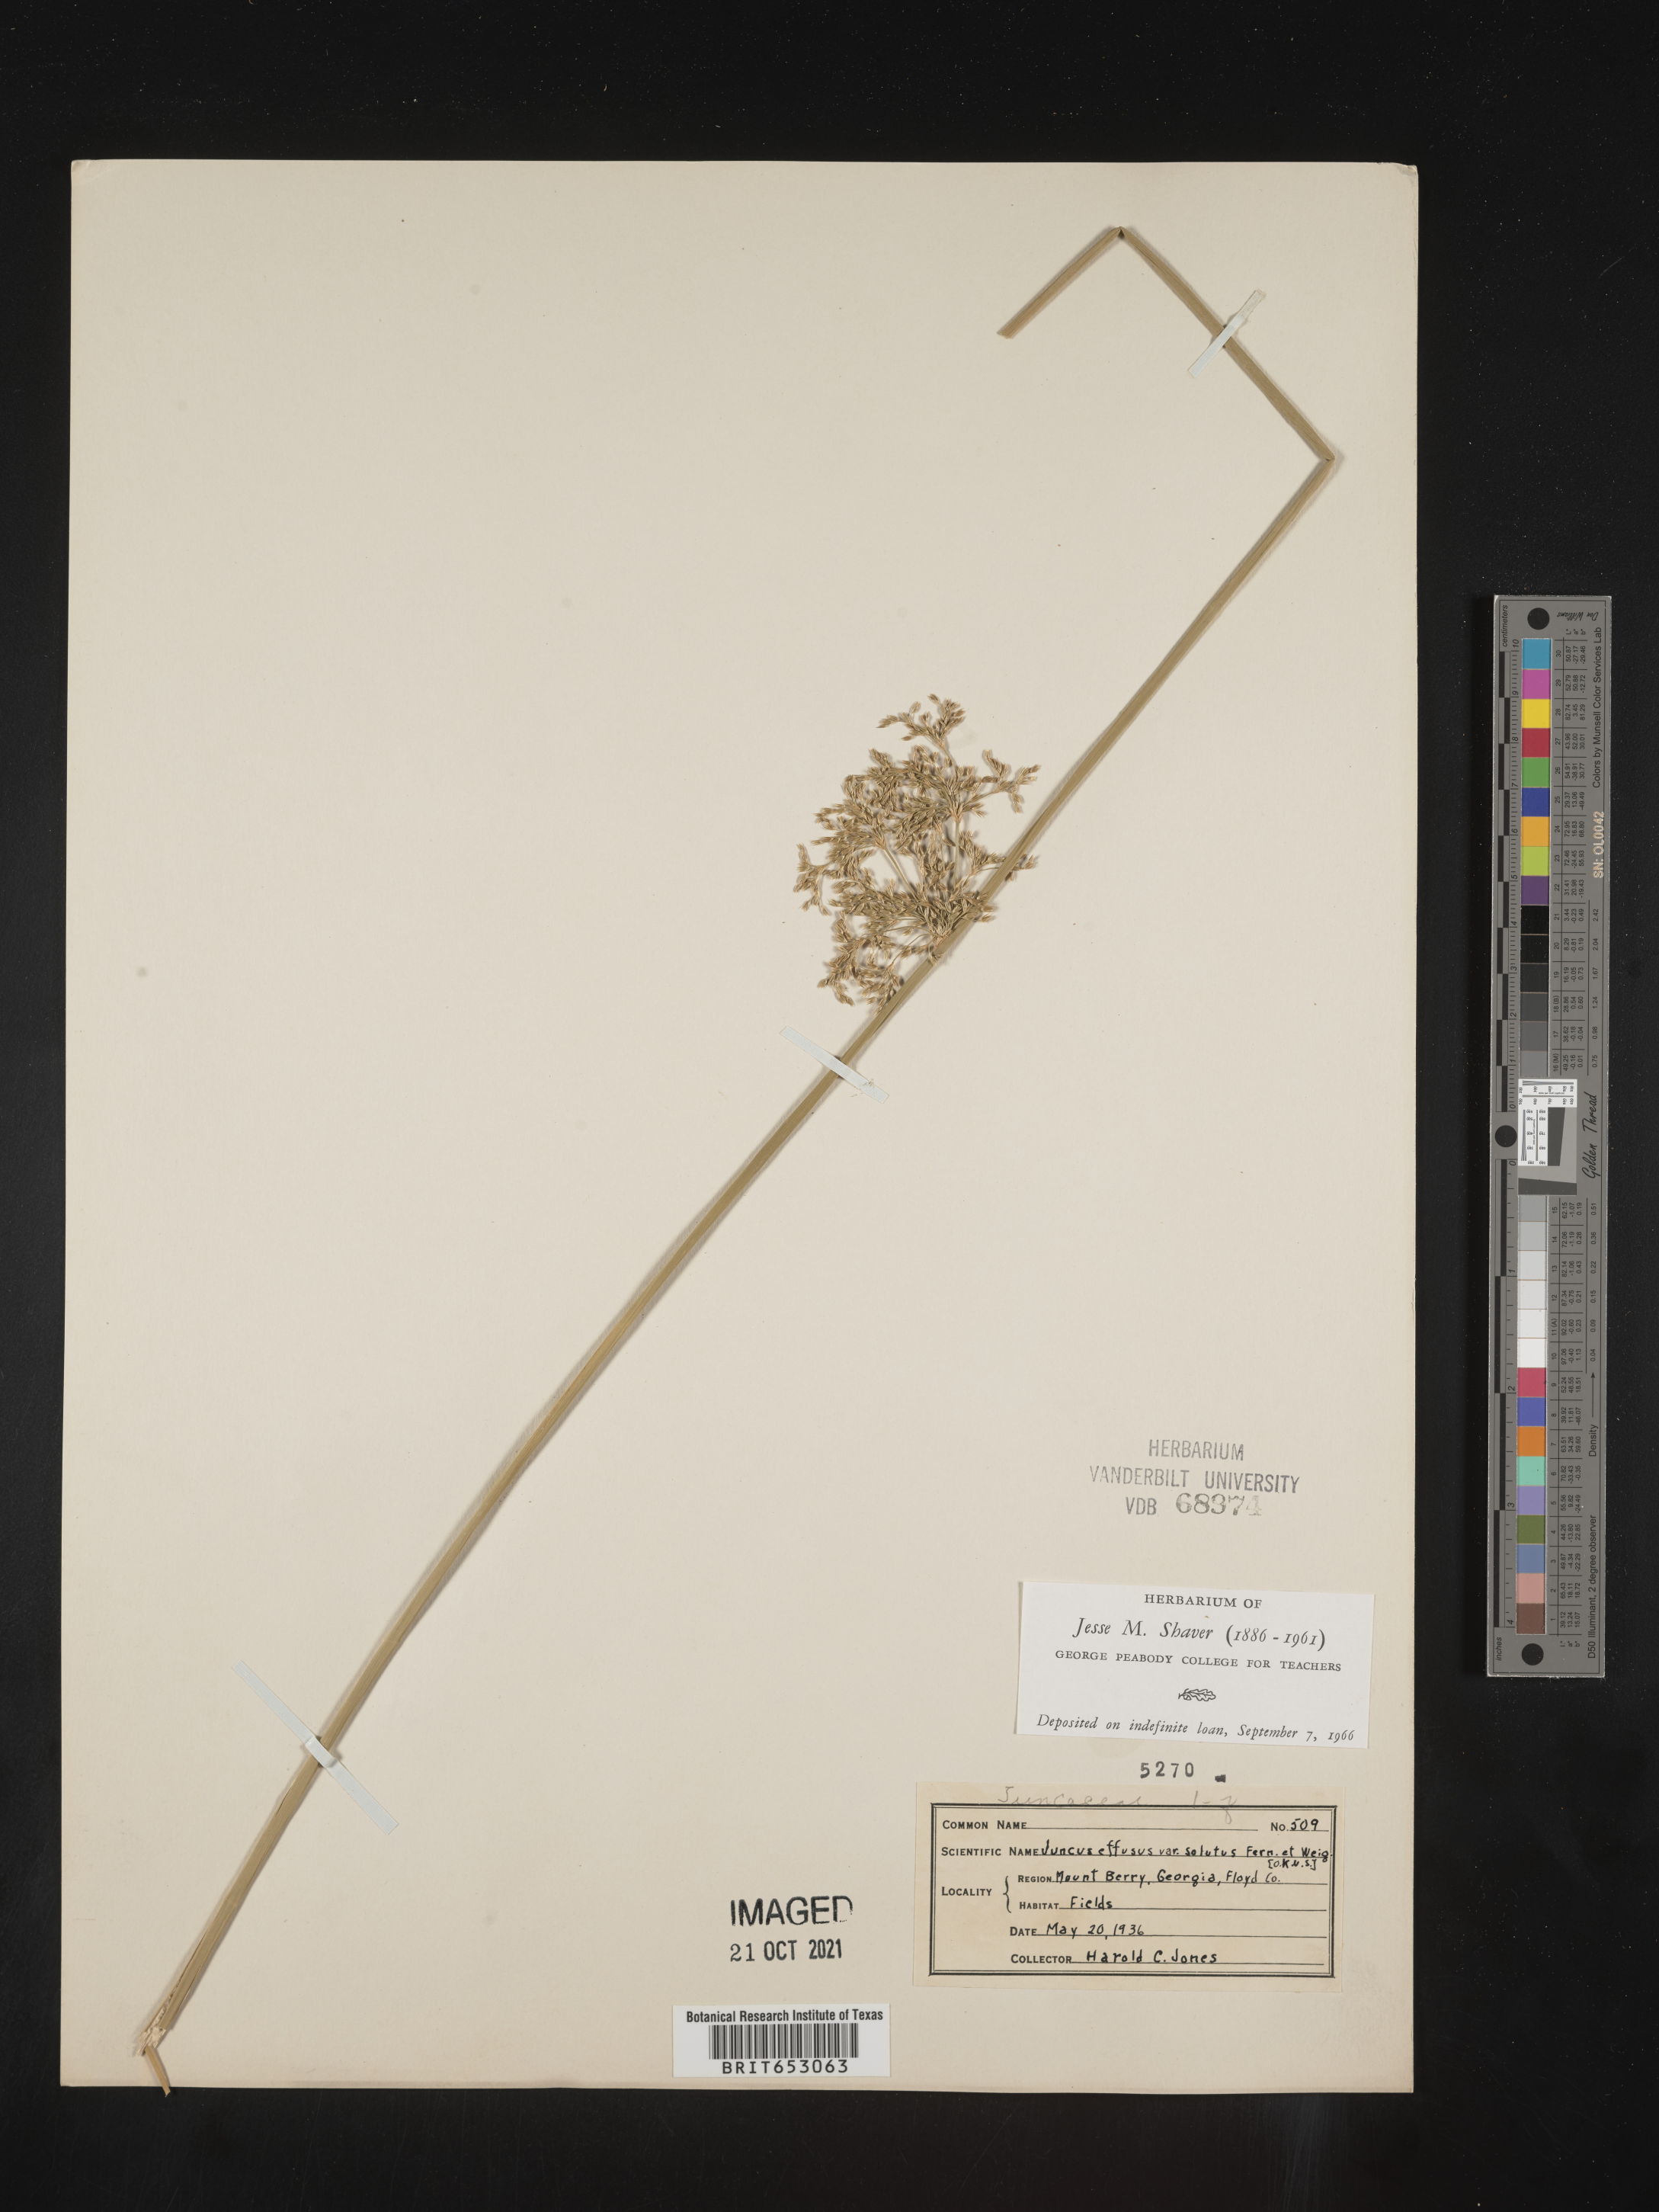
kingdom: Plantae
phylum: Tracheophyta
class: Liliopsida
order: Poales
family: Juncaceae
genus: Juncus
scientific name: Juncus effusus
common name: Soft rush
